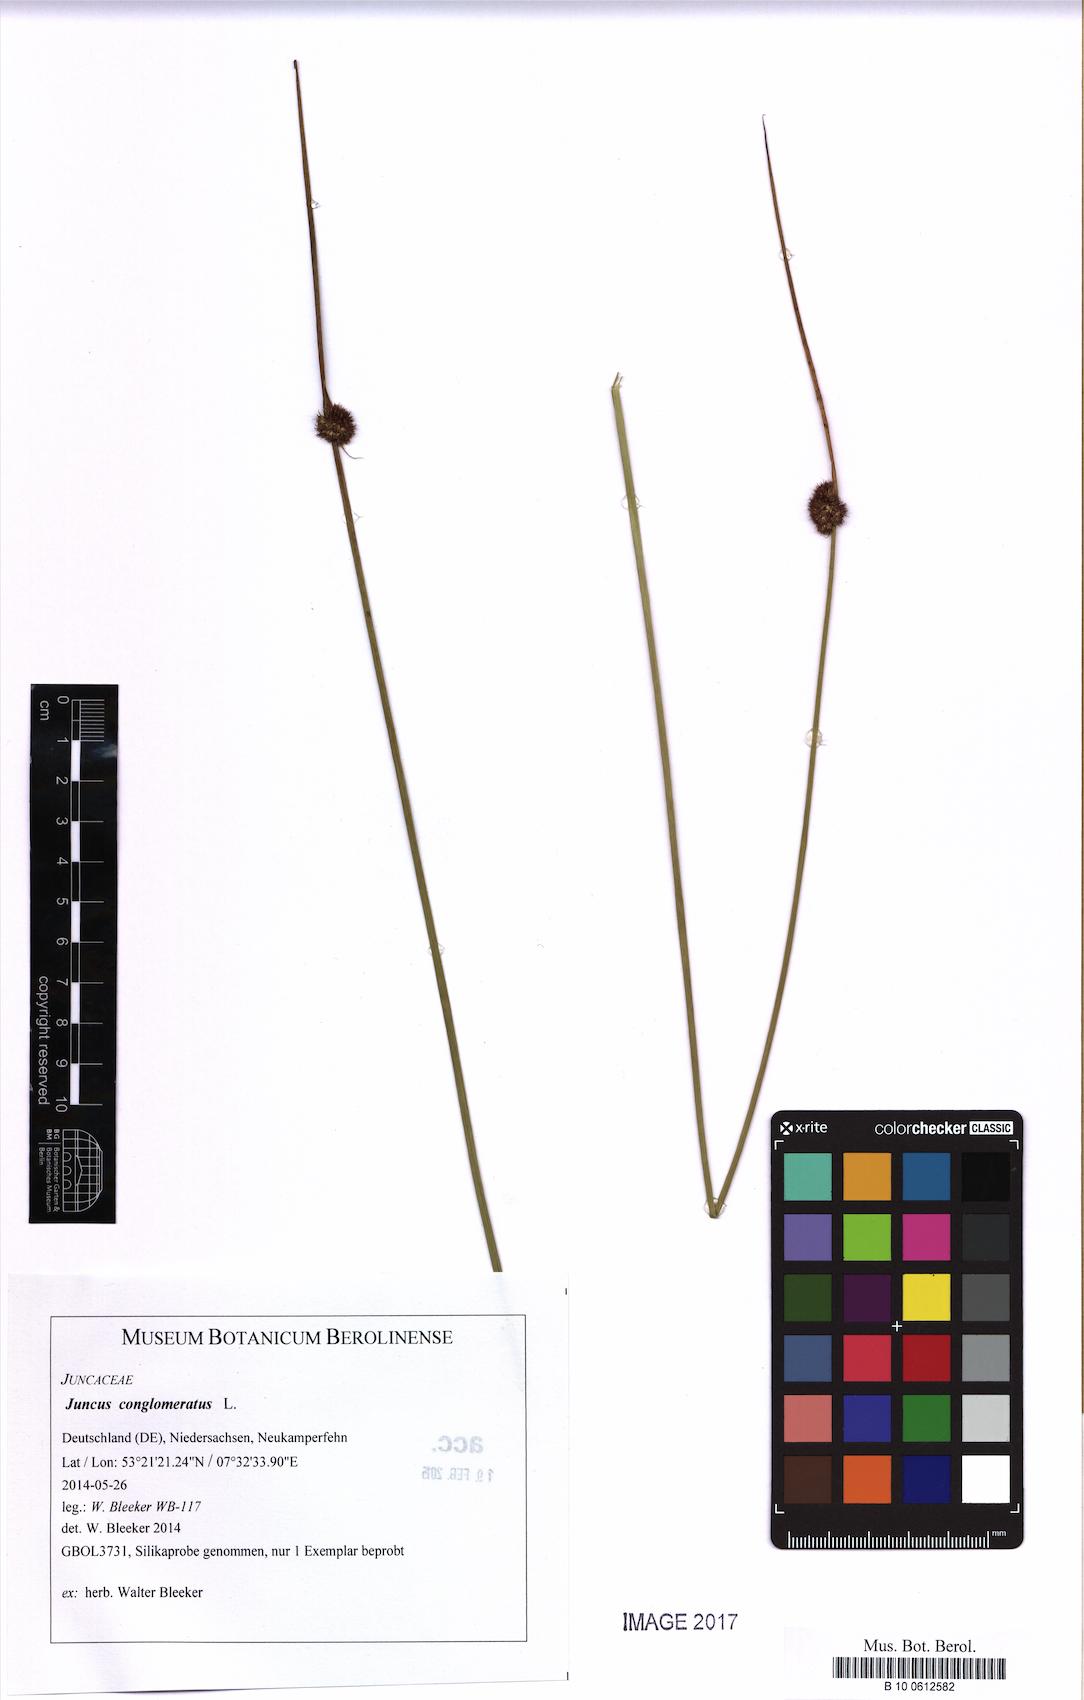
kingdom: Plantae
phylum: Tracheophyta
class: Liliopsida
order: Poales
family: Juncaceae
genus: Juncus
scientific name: Juncus conglomeratus
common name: Compact rush
